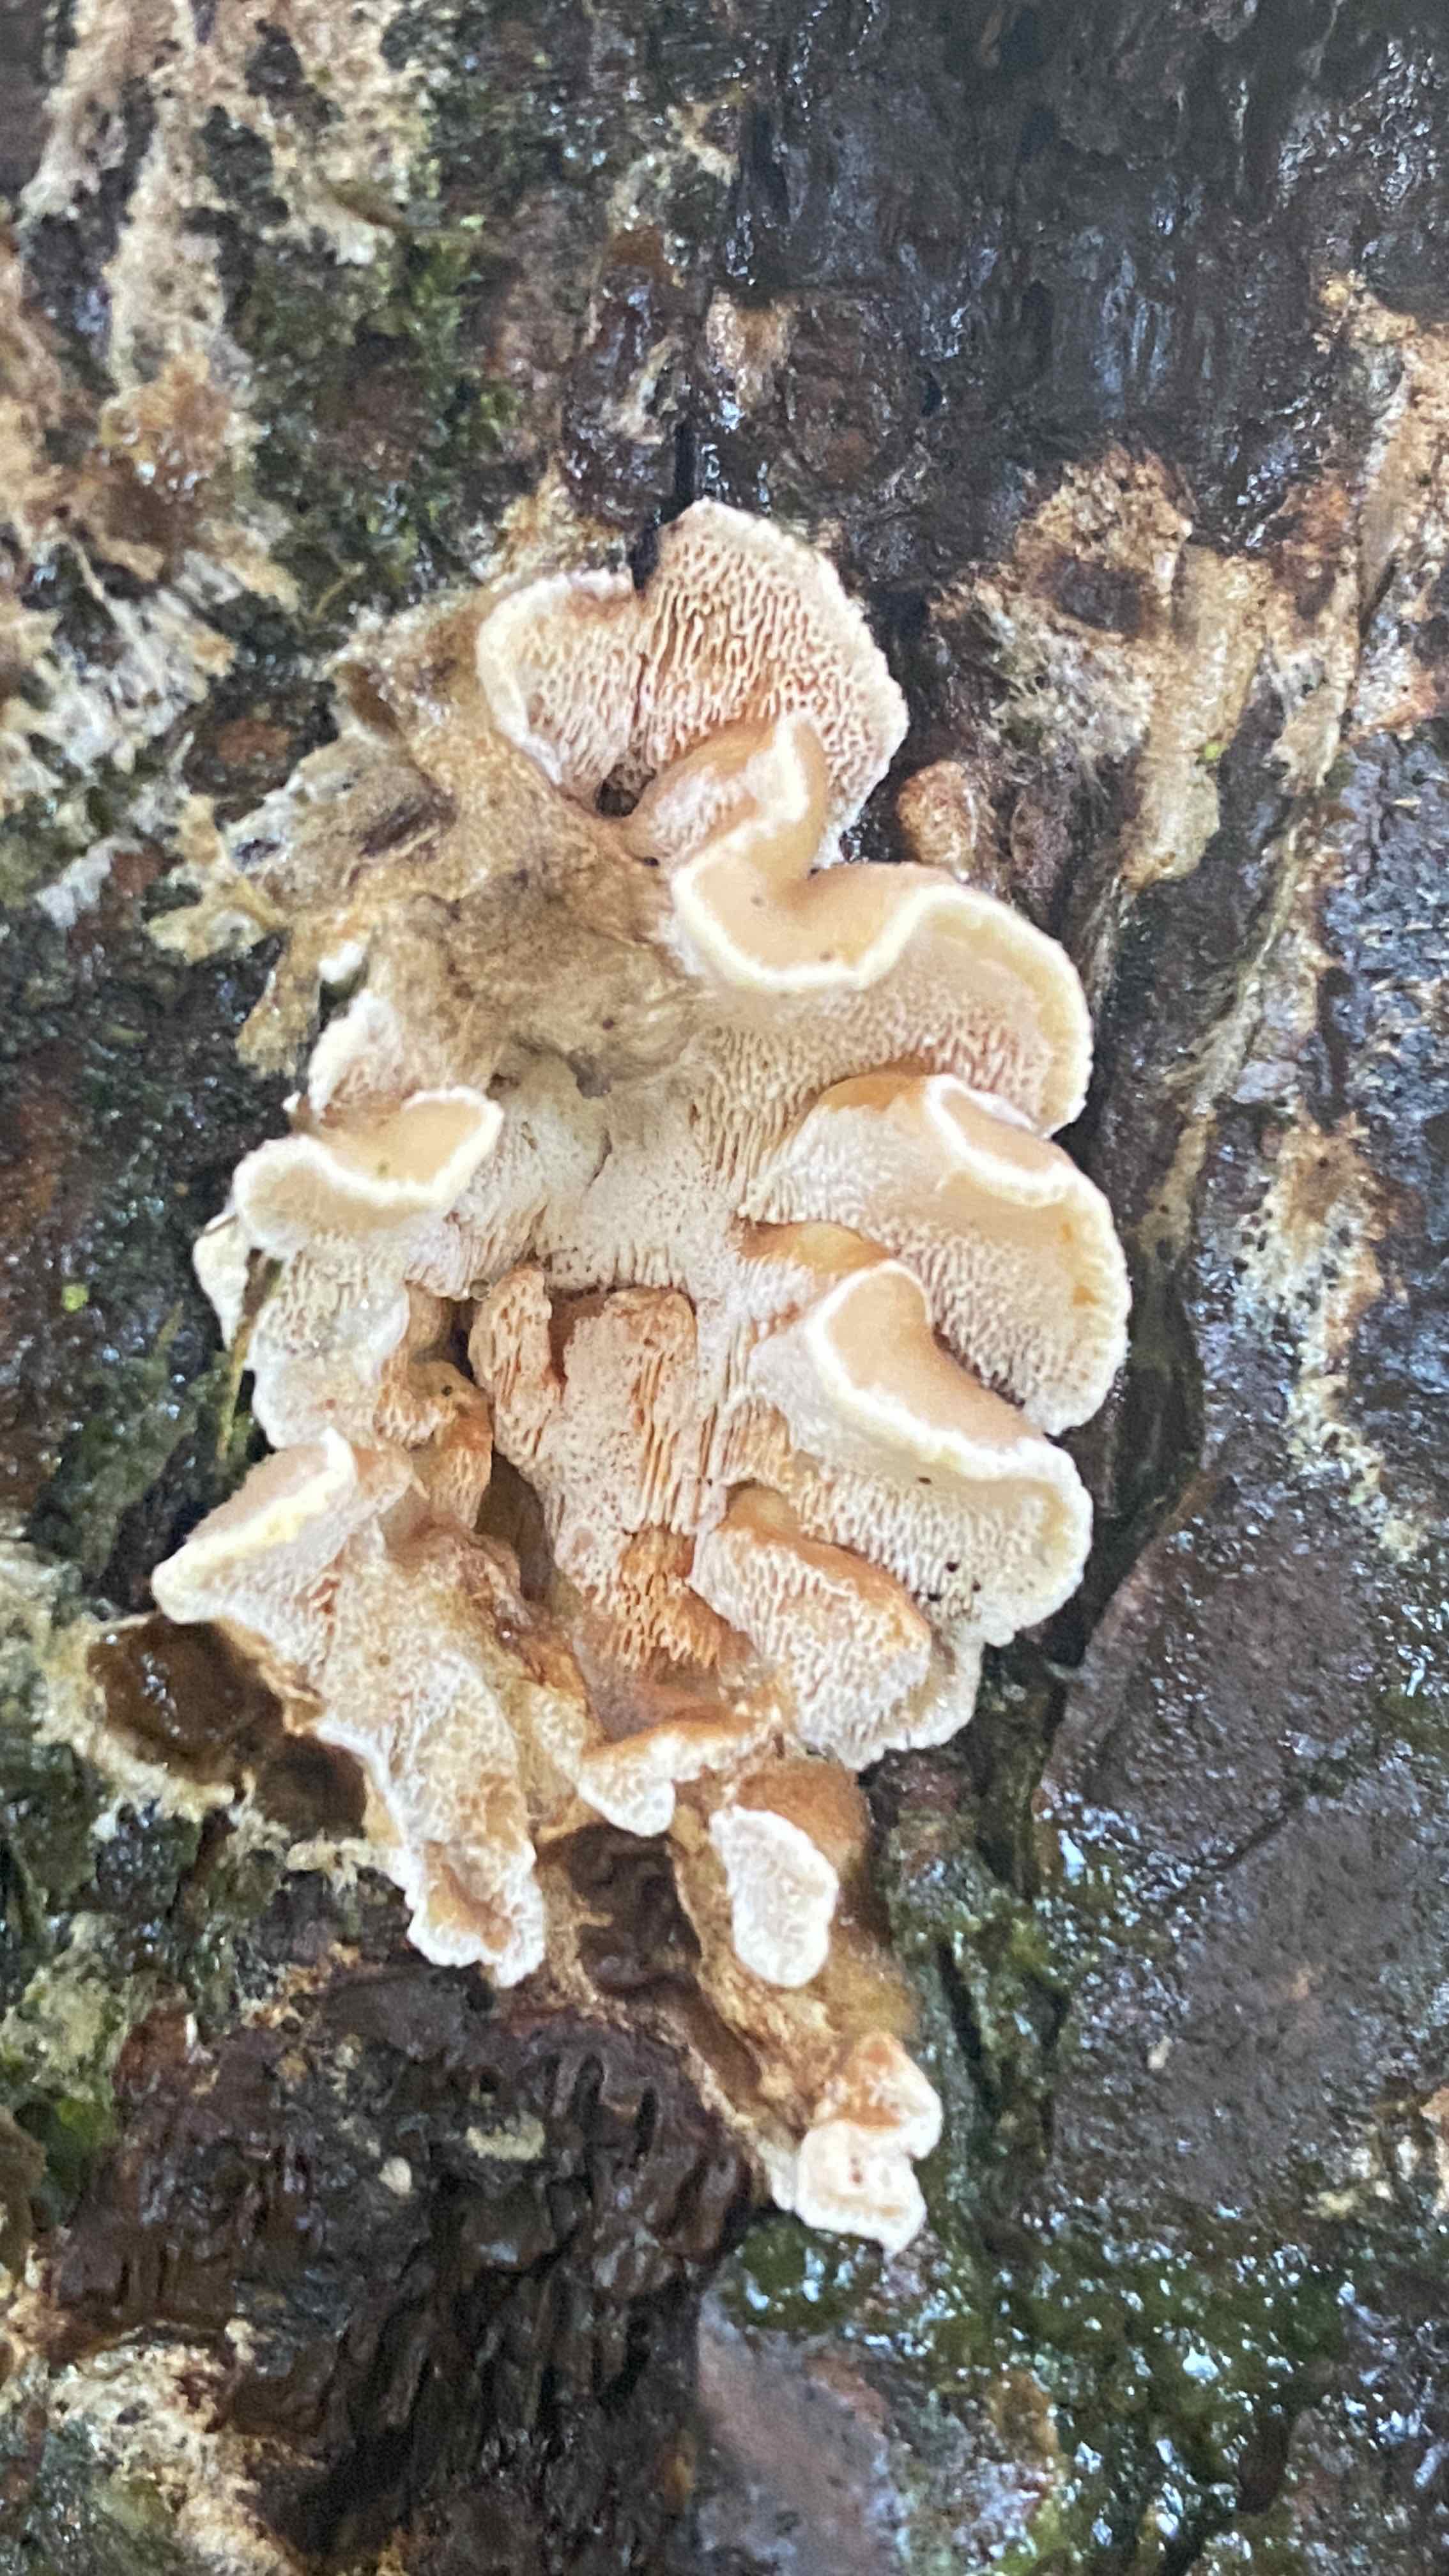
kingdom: Fungi
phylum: Basidiomycota
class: Agaricomycetes
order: Polyporales
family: Incrustoporiaceae
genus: Skeletocutis
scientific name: Skeletocutis amorpha
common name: orange krystalporesvamp
